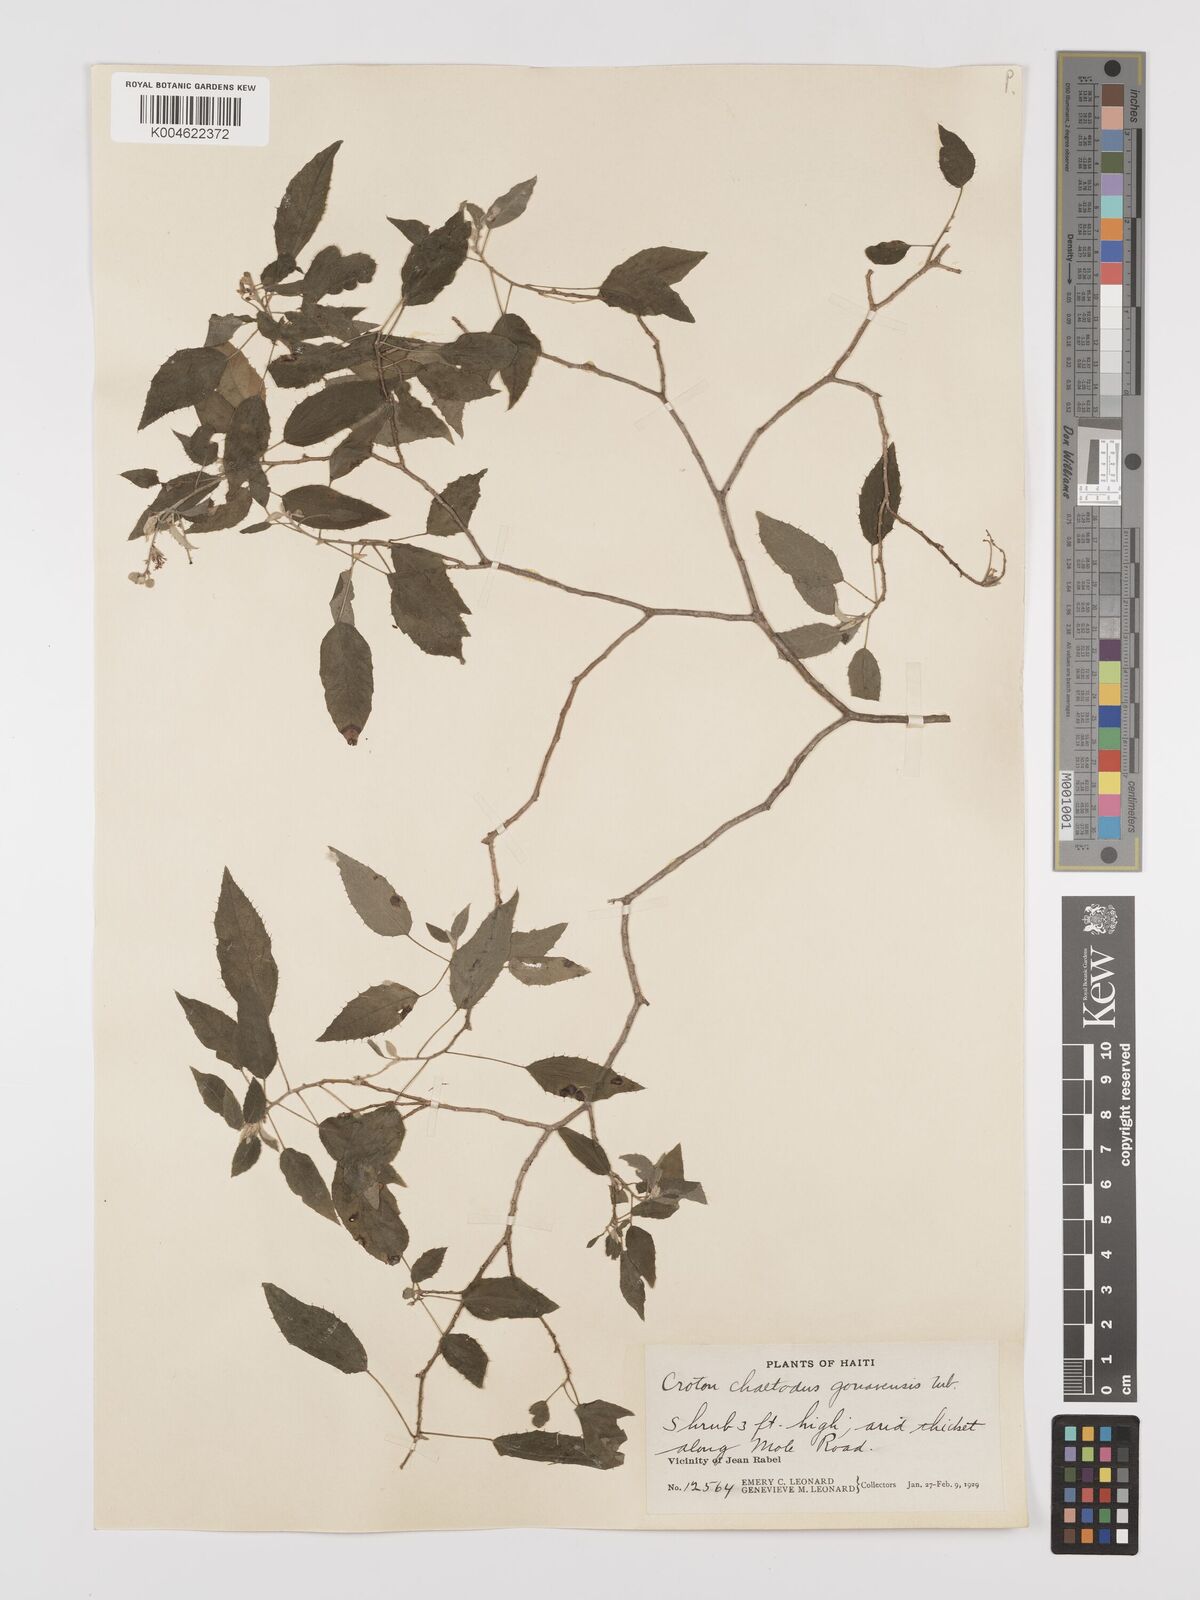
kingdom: Plantae
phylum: Tracheophyta
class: Magnoliopsida
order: Malpighiales
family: Euphorbiaceae
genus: Croton
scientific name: Croton ciliatoglandulifer
